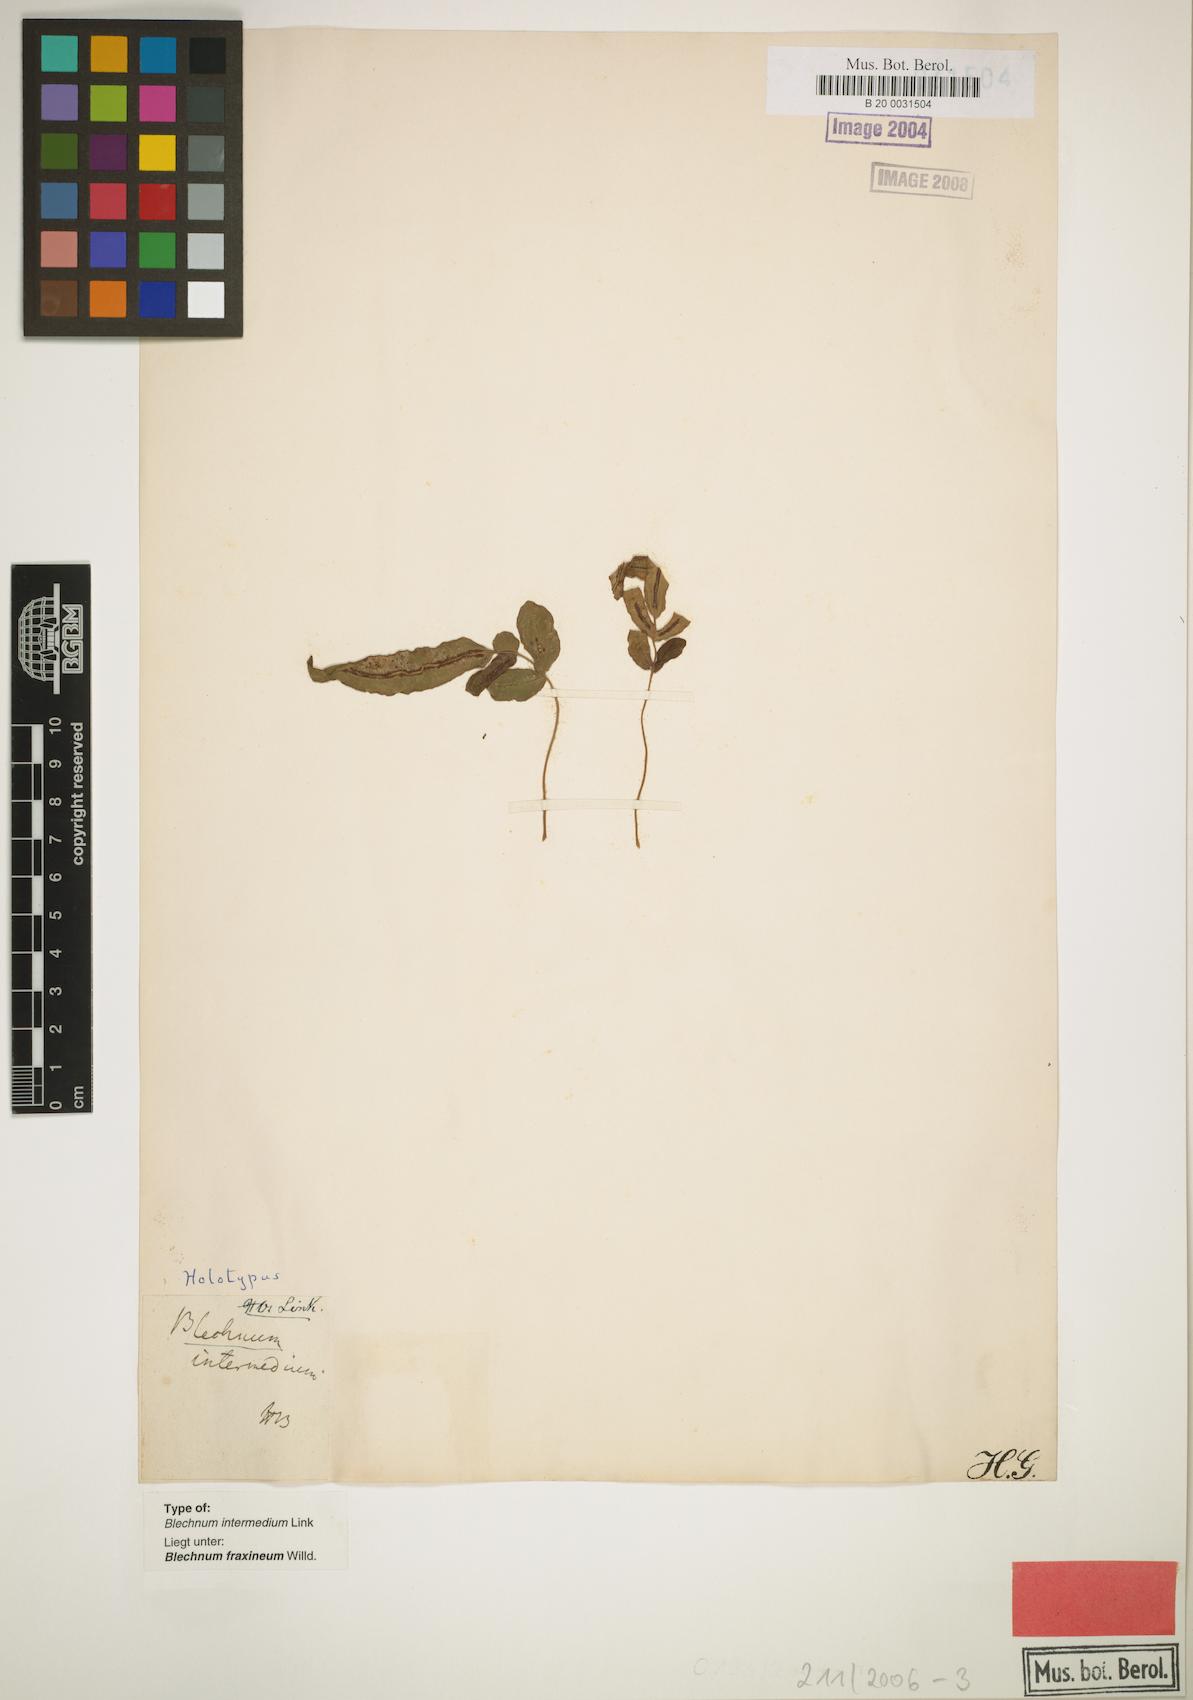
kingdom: Plantae
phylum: Tracheophyta
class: Polypodiopsida
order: Polypodiales
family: Blechnaceae
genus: Blechnum
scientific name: Blechnum gracile
